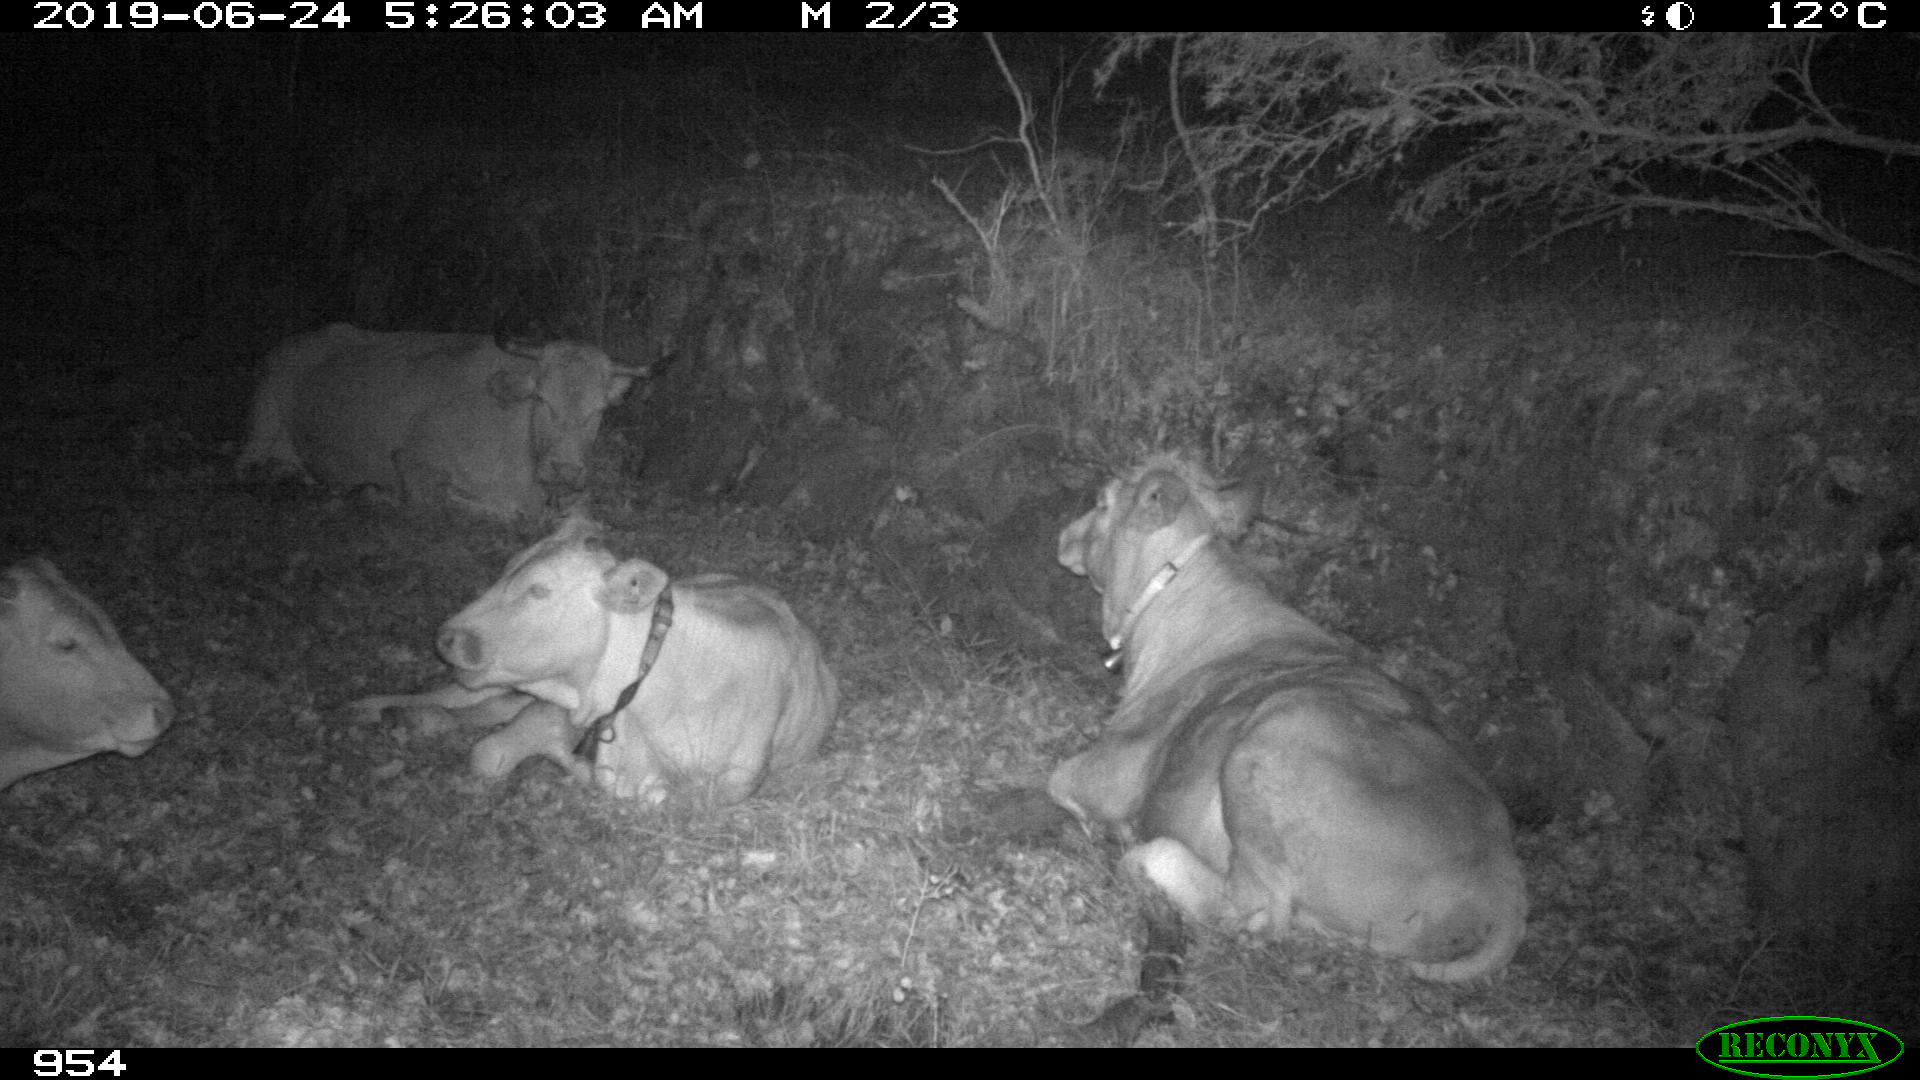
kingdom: Animalia
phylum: Chordata
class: Mammalia
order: Artiodactyla
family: Bovidae
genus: Bos
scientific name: Bos taurus
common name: Domesticated cattle
